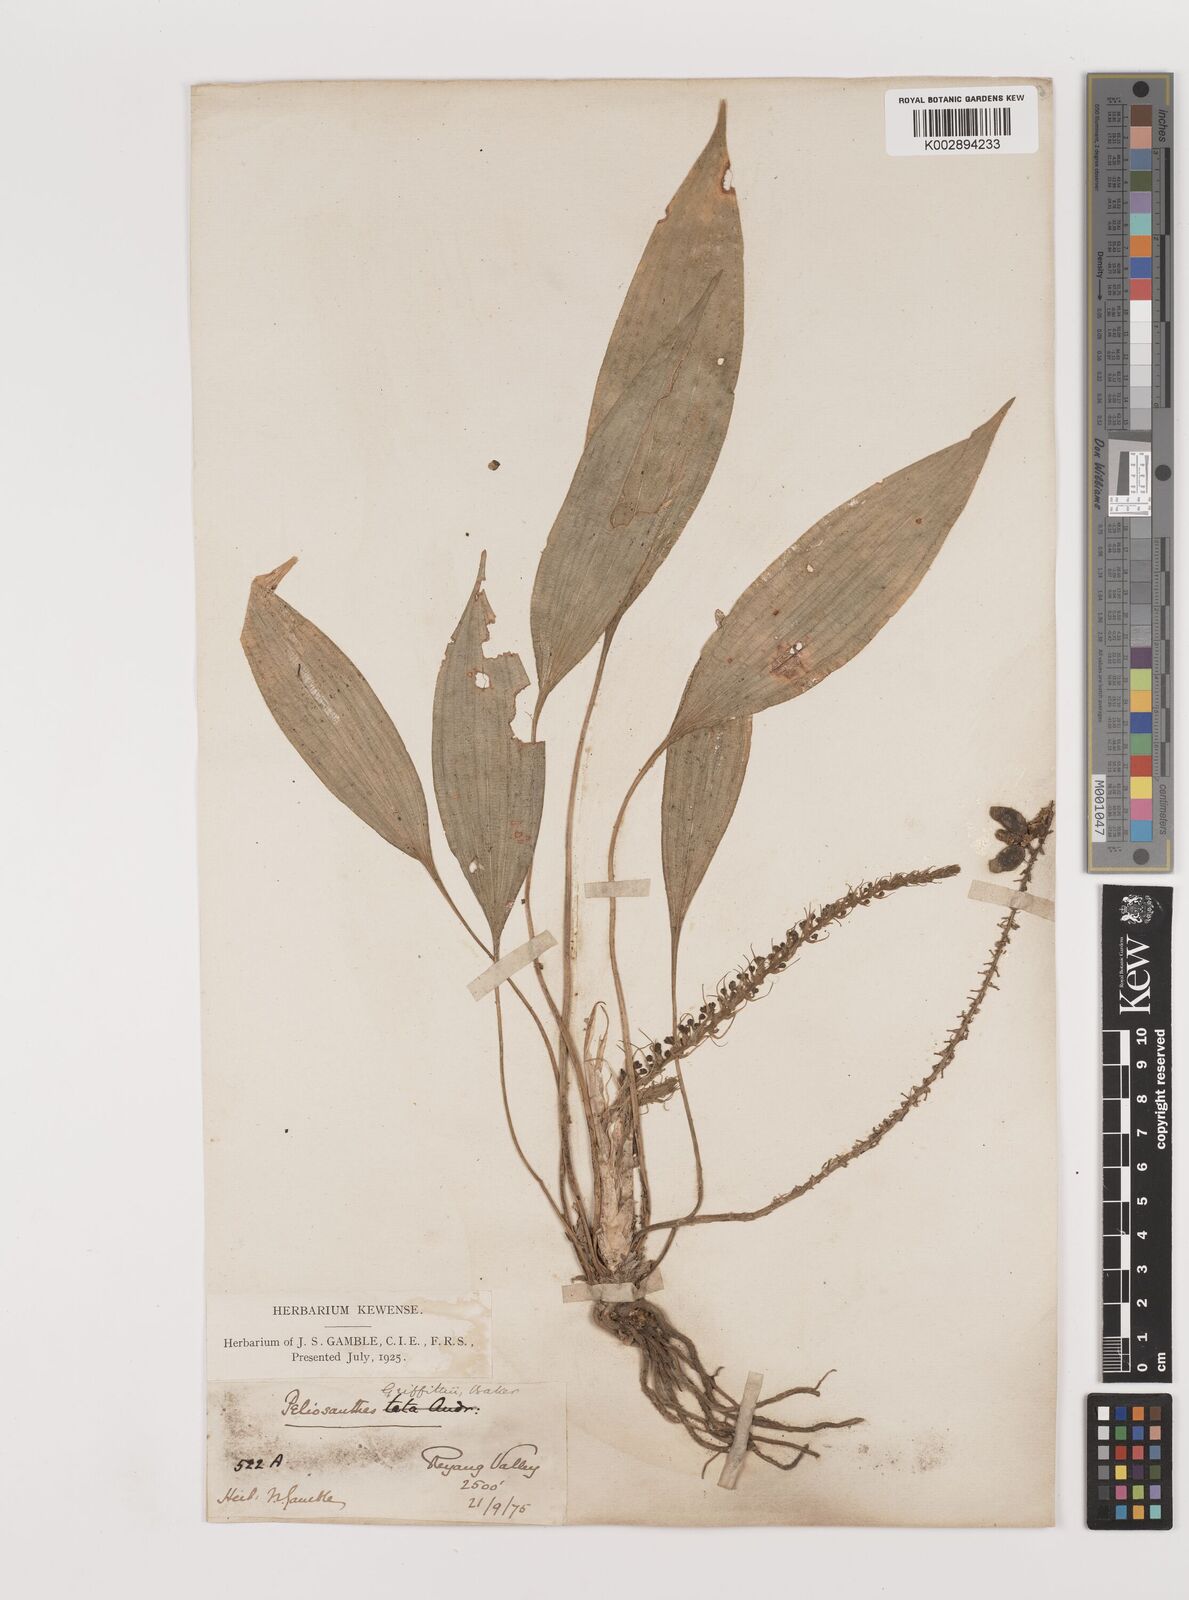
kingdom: Plantae
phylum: Tracheophyta
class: Liliopsida
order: Asparagales
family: Asparagaceae
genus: Peliosanthes
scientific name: Peliosanthes teta
